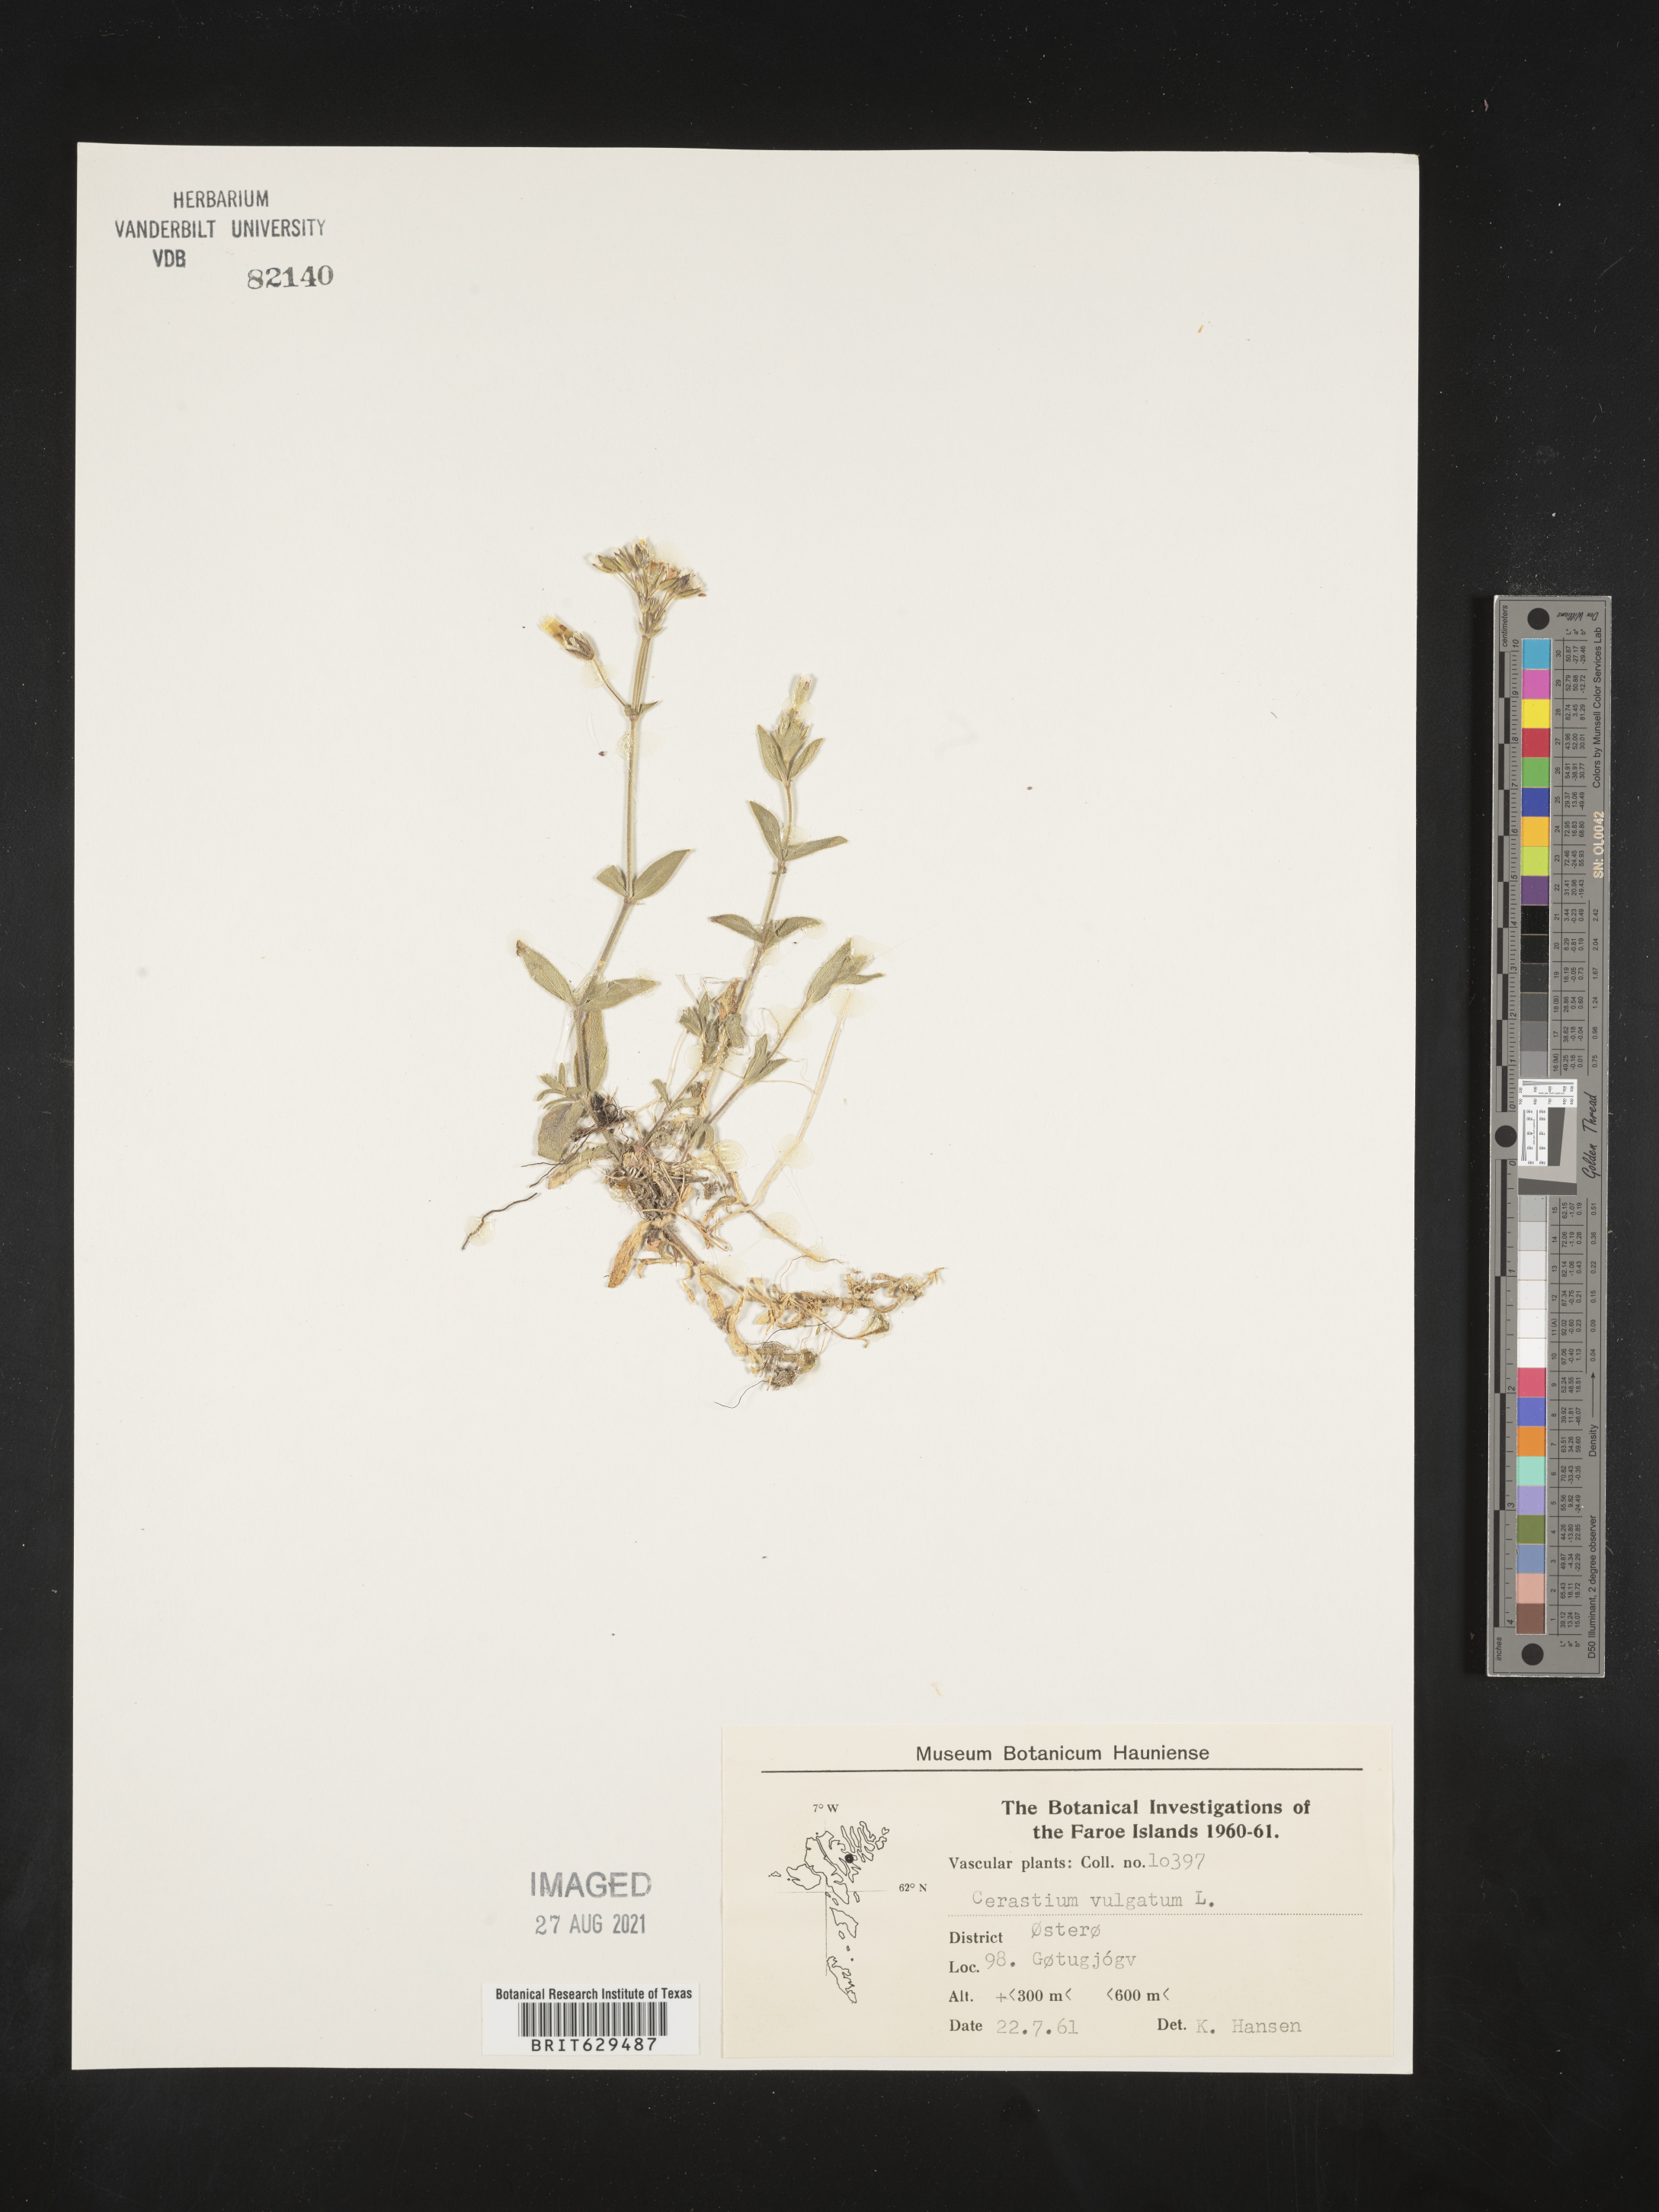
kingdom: Plantae
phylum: Tracheophyta
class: Magnoliopsida
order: Caryophyllales
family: Caryophyllaceae
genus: Cerastium
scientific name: Cerastium
